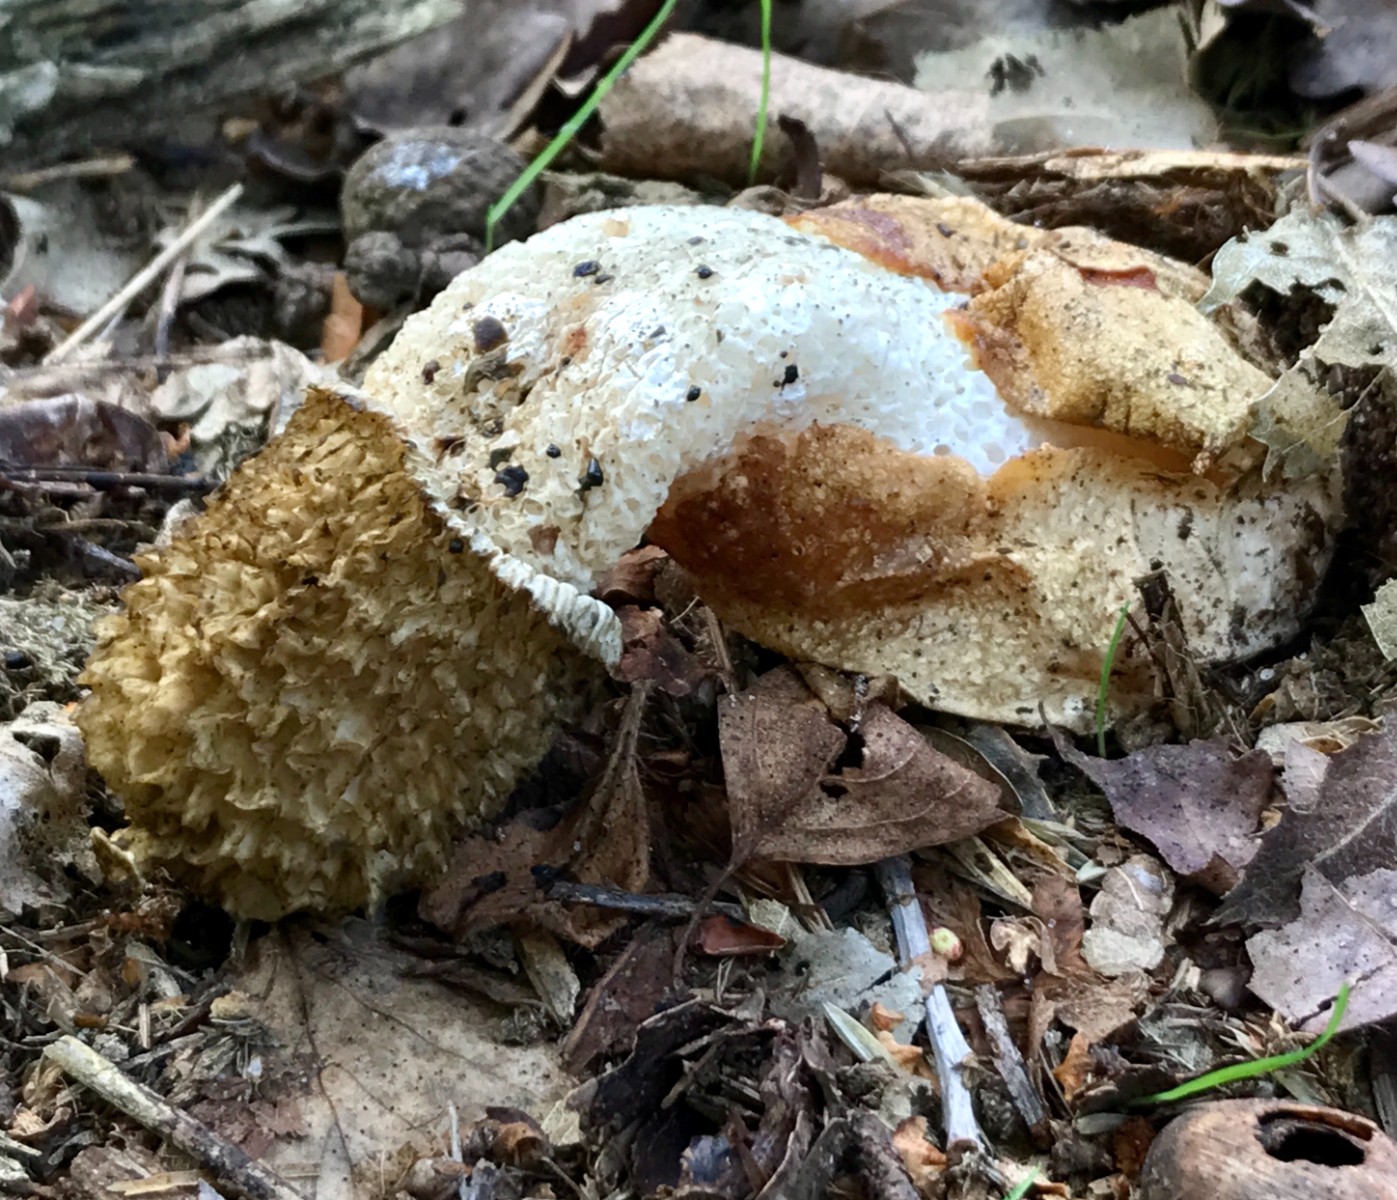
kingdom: Fungi
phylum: Basidiomycota
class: Agaricomycetes
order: Phallales
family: Phallaceae
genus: Phallus
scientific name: Phallus impudicus
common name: almindelig stinksvamp
